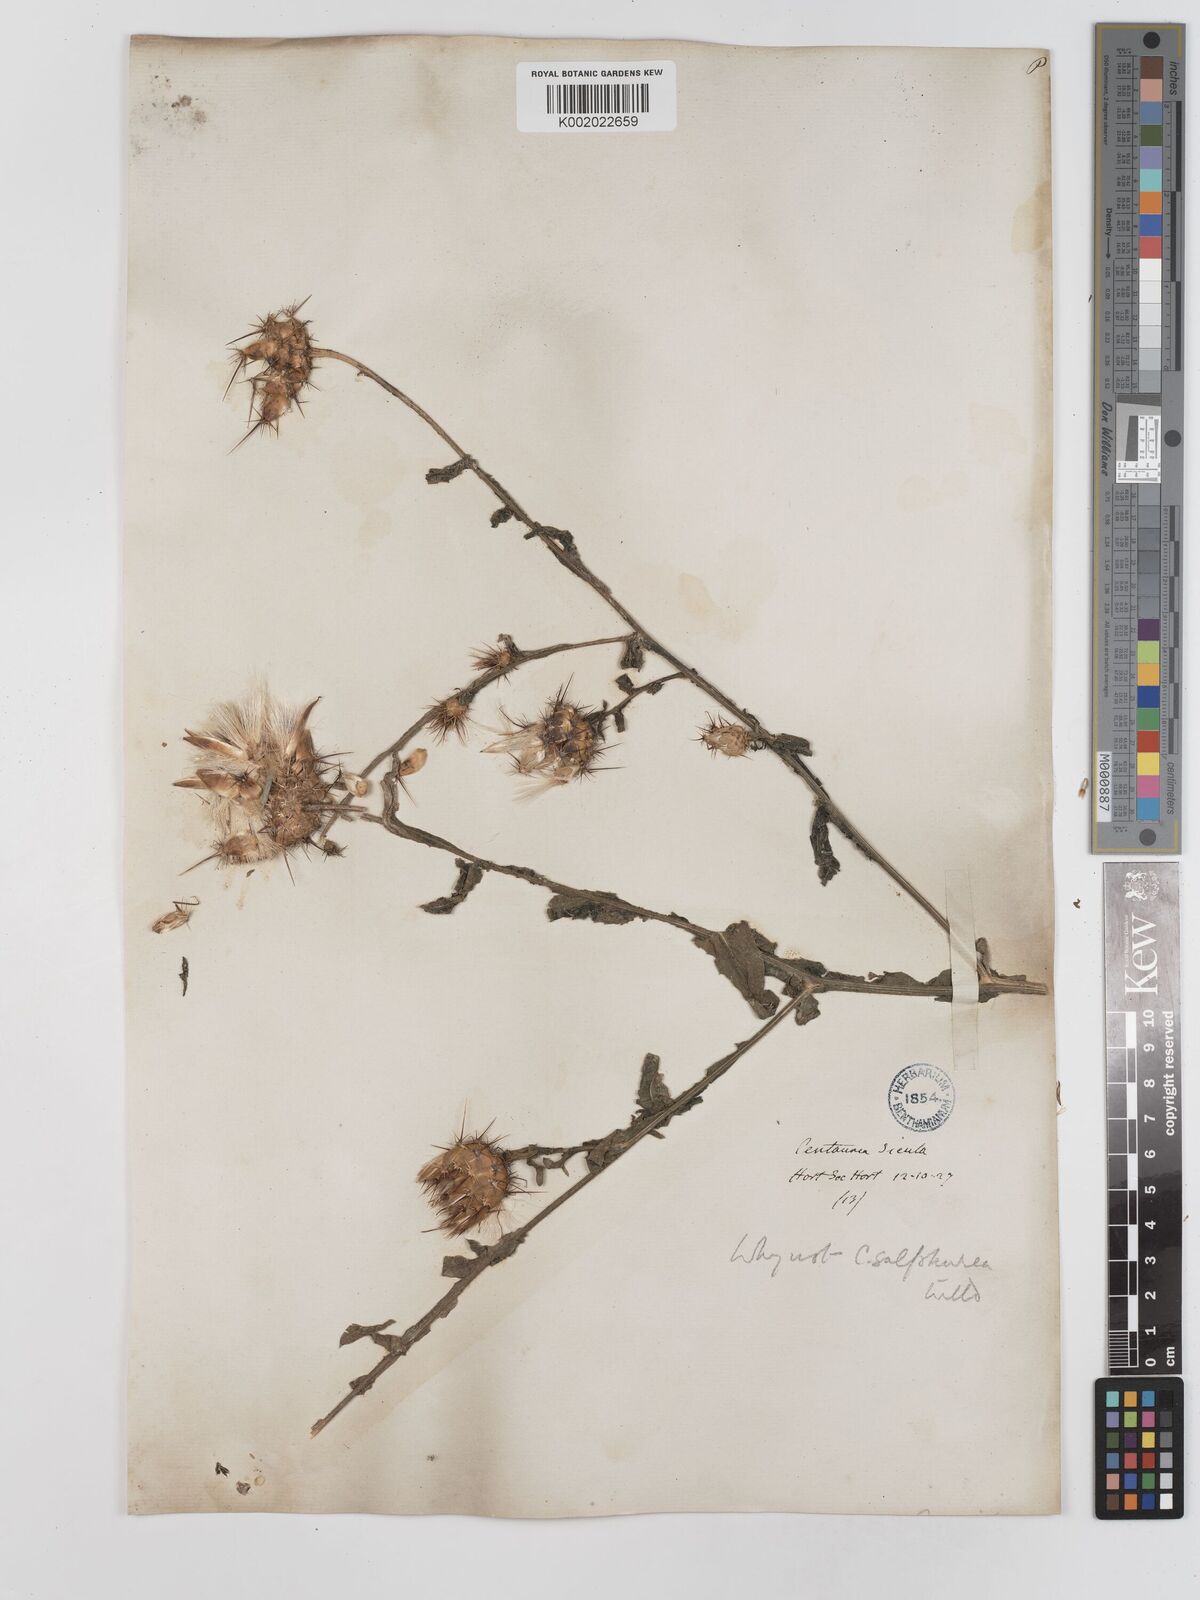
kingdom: Plantae
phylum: Tracheophyta
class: Magnoliopsida
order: Asterales
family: Asteraceae
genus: Centaurea
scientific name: Centaurea affinis
